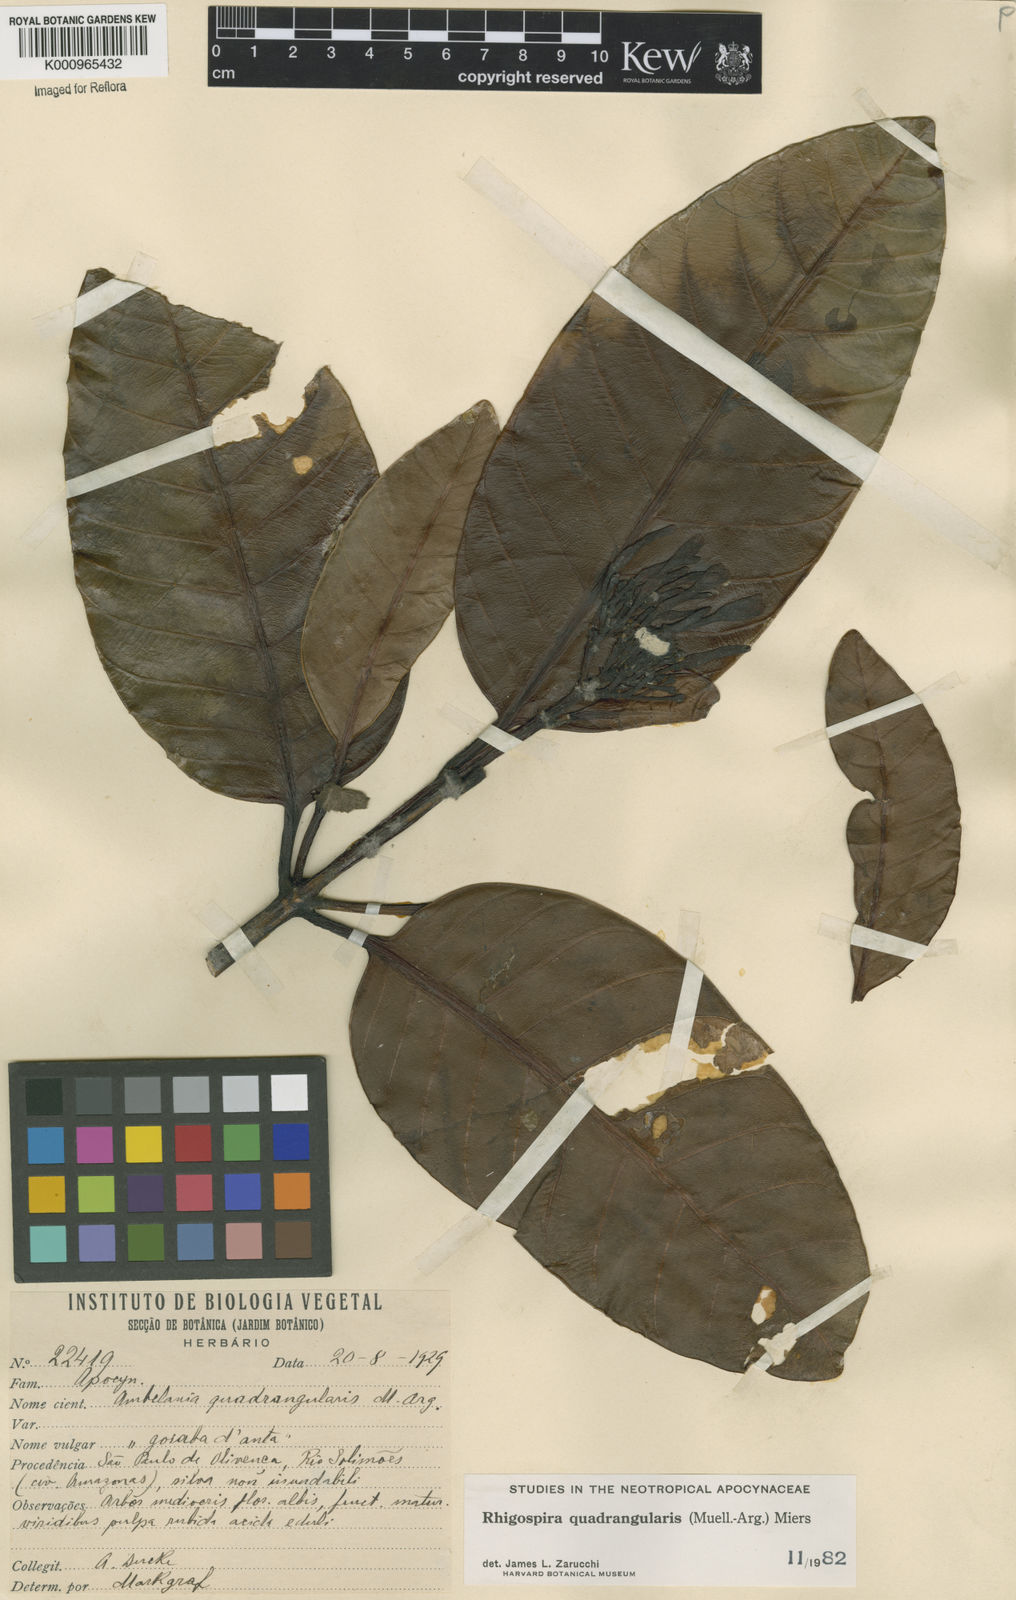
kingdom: Plantae
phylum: Tracheophyta
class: Magnoliopsida
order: Gentianales
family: Apocynaceae
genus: Rhigospira
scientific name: Rhigospira quadrangularis
